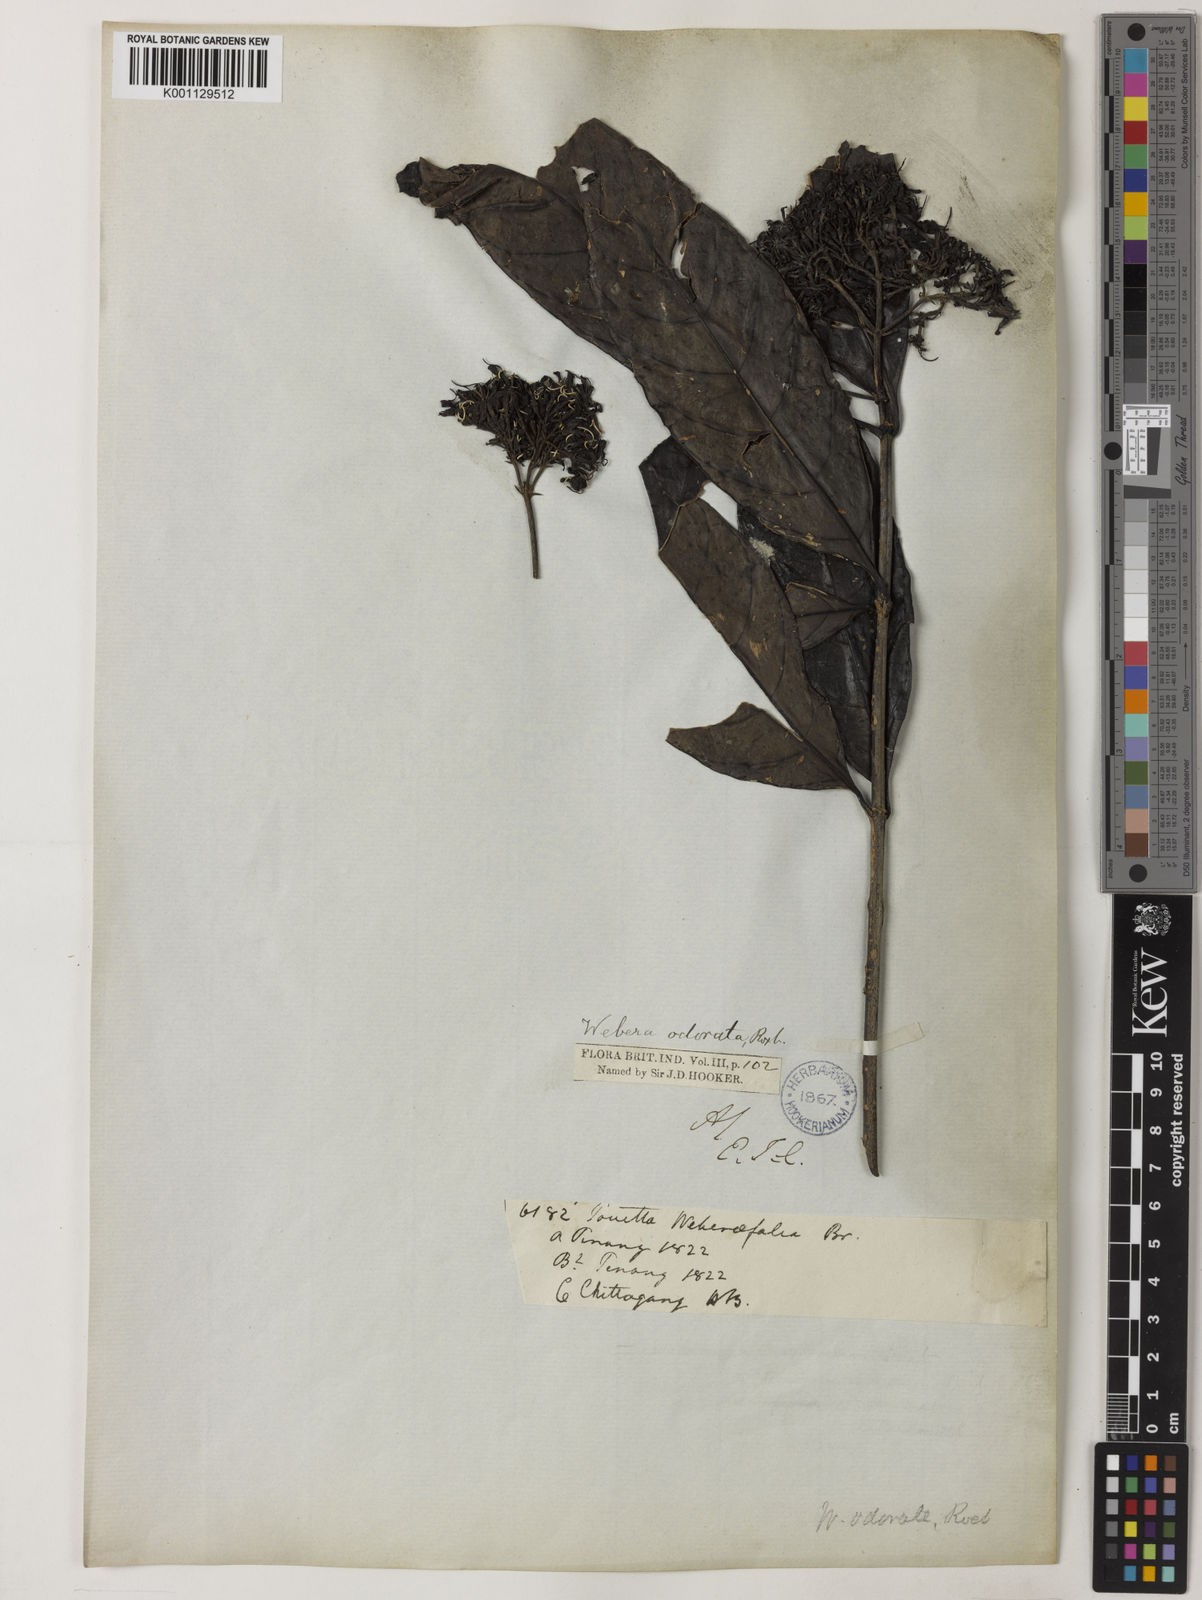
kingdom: Plantae
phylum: Tracheophyta
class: Magnoliopsida
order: Gentianales
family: Rubiaceae
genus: Tarenna
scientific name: Tarenna odorata
